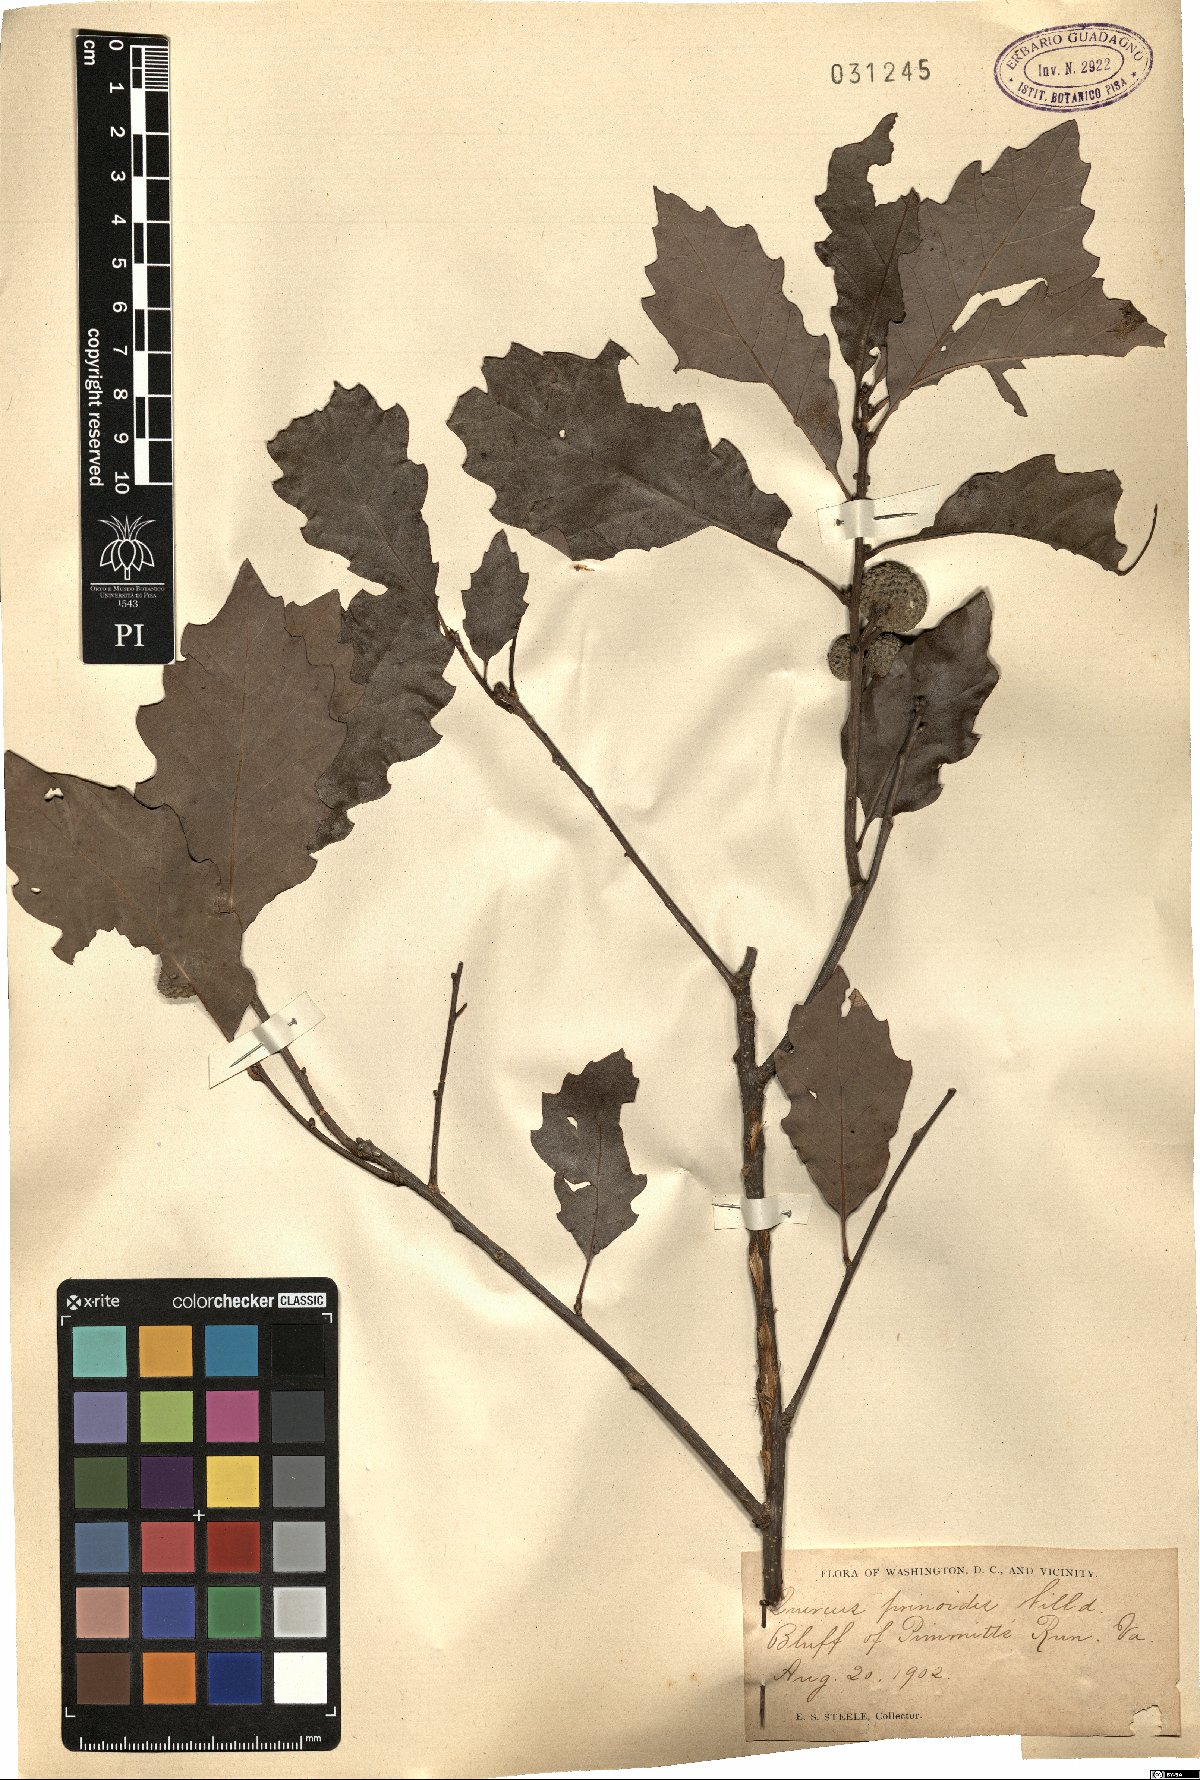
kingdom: Plantae
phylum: Tracheophyta
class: Magnoliopsida
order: Fagales
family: Fagaceae
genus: Quercus
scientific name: Quercus prinoides
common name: Dwarf chinkapin oak
